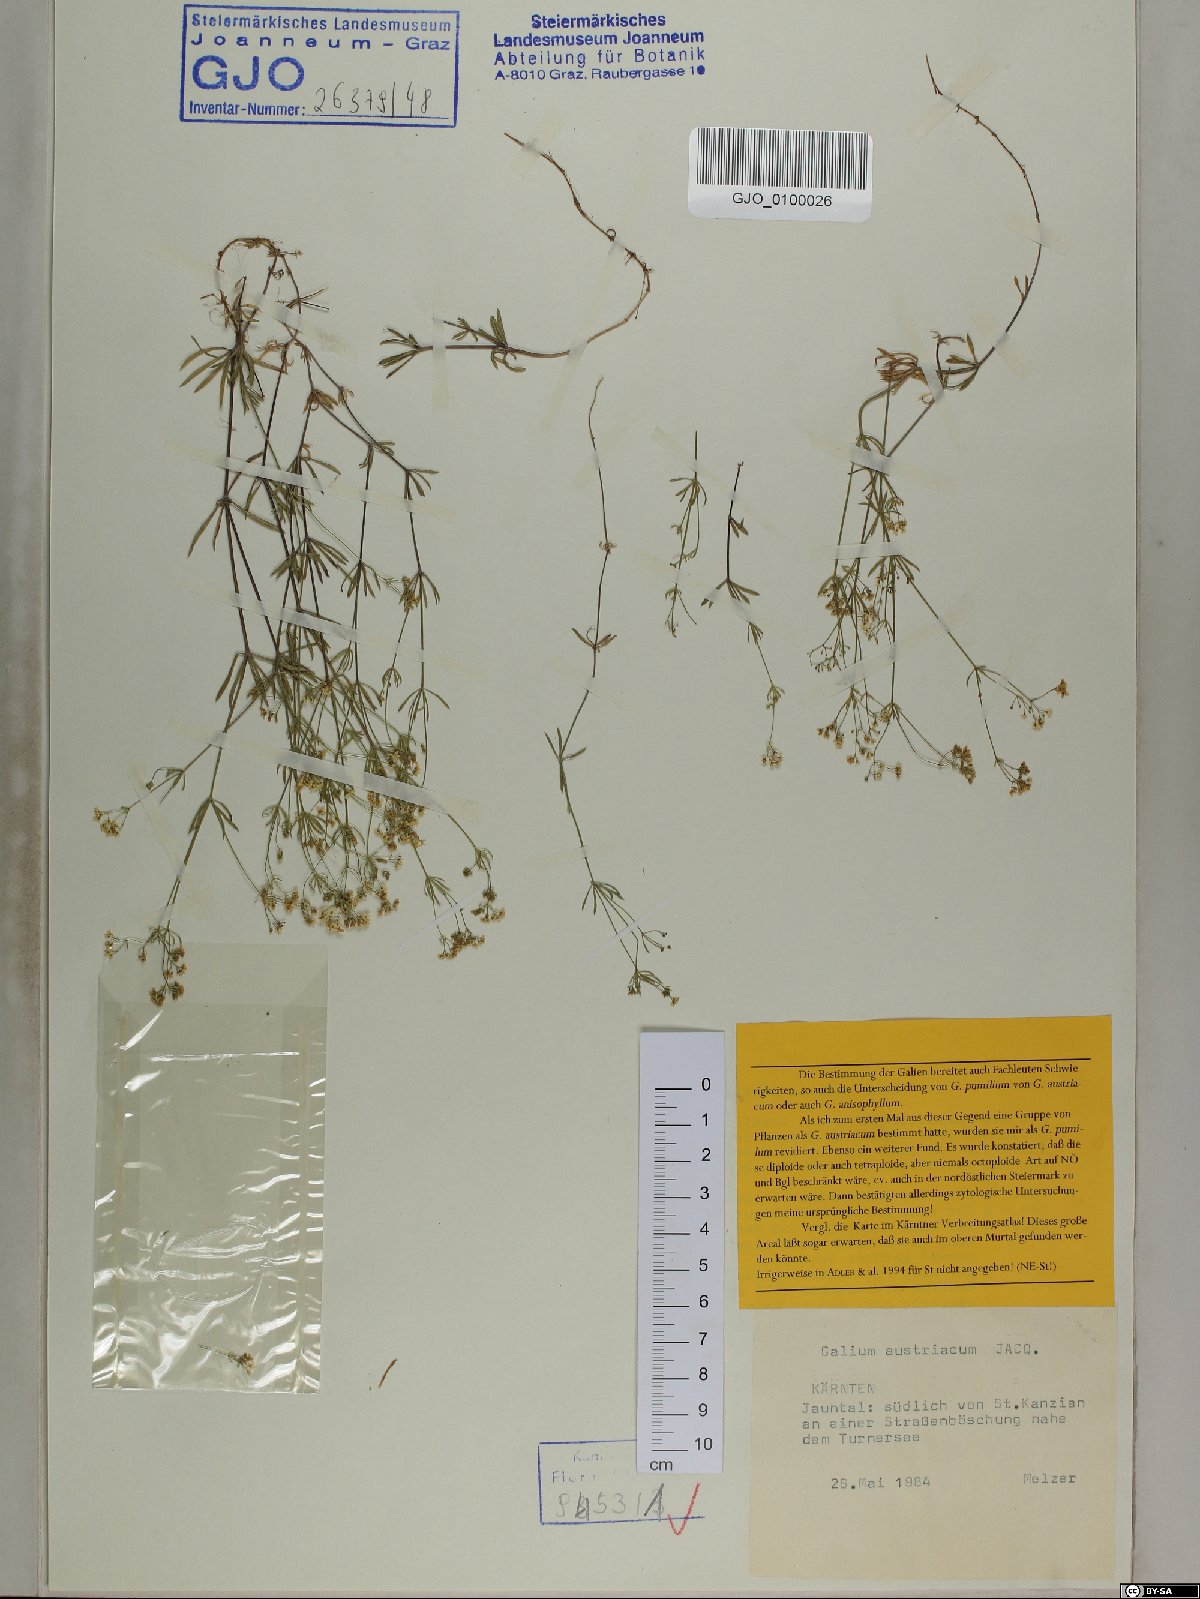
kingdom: Plantae
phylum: Tracheophyta
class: Magnoliopsida
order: Gentianales
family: Rubiaceae
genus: Galium
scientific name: Galium austriacum
